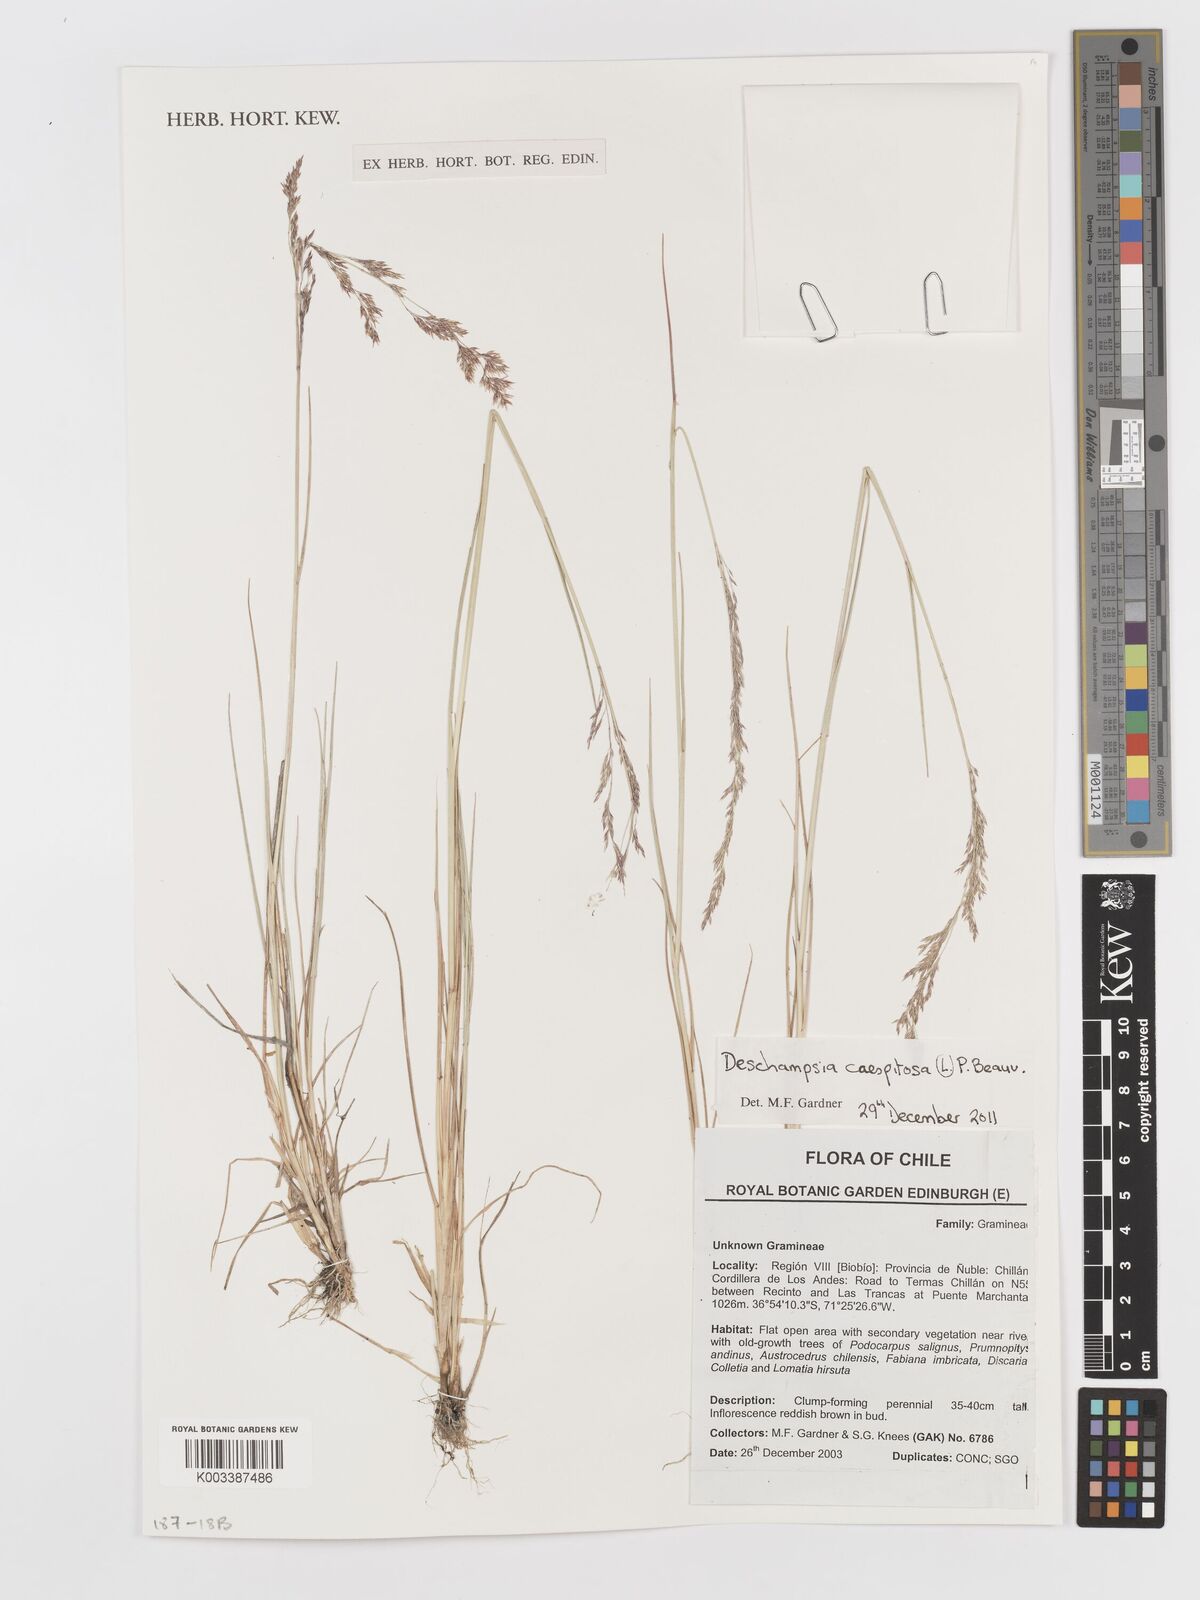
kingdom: Plantae
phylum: Tracheophyta
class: Liliopsida
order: Poales
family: Poaceae
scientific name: Poaceae
